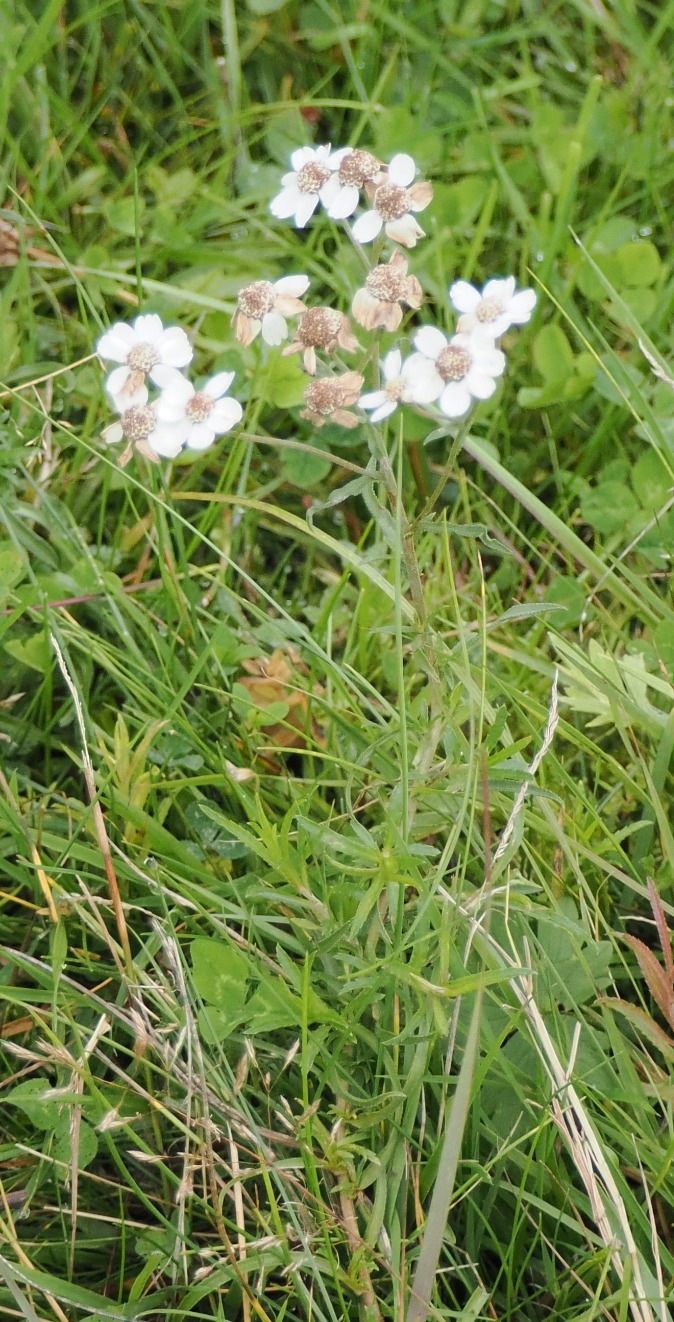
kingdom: Plantae
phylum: Tracheophyta
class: Magnoliopsida
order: Asterales
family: Asteraceae
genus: Achillea
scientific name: Achillea ptarmica
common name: Nyse-røllike
